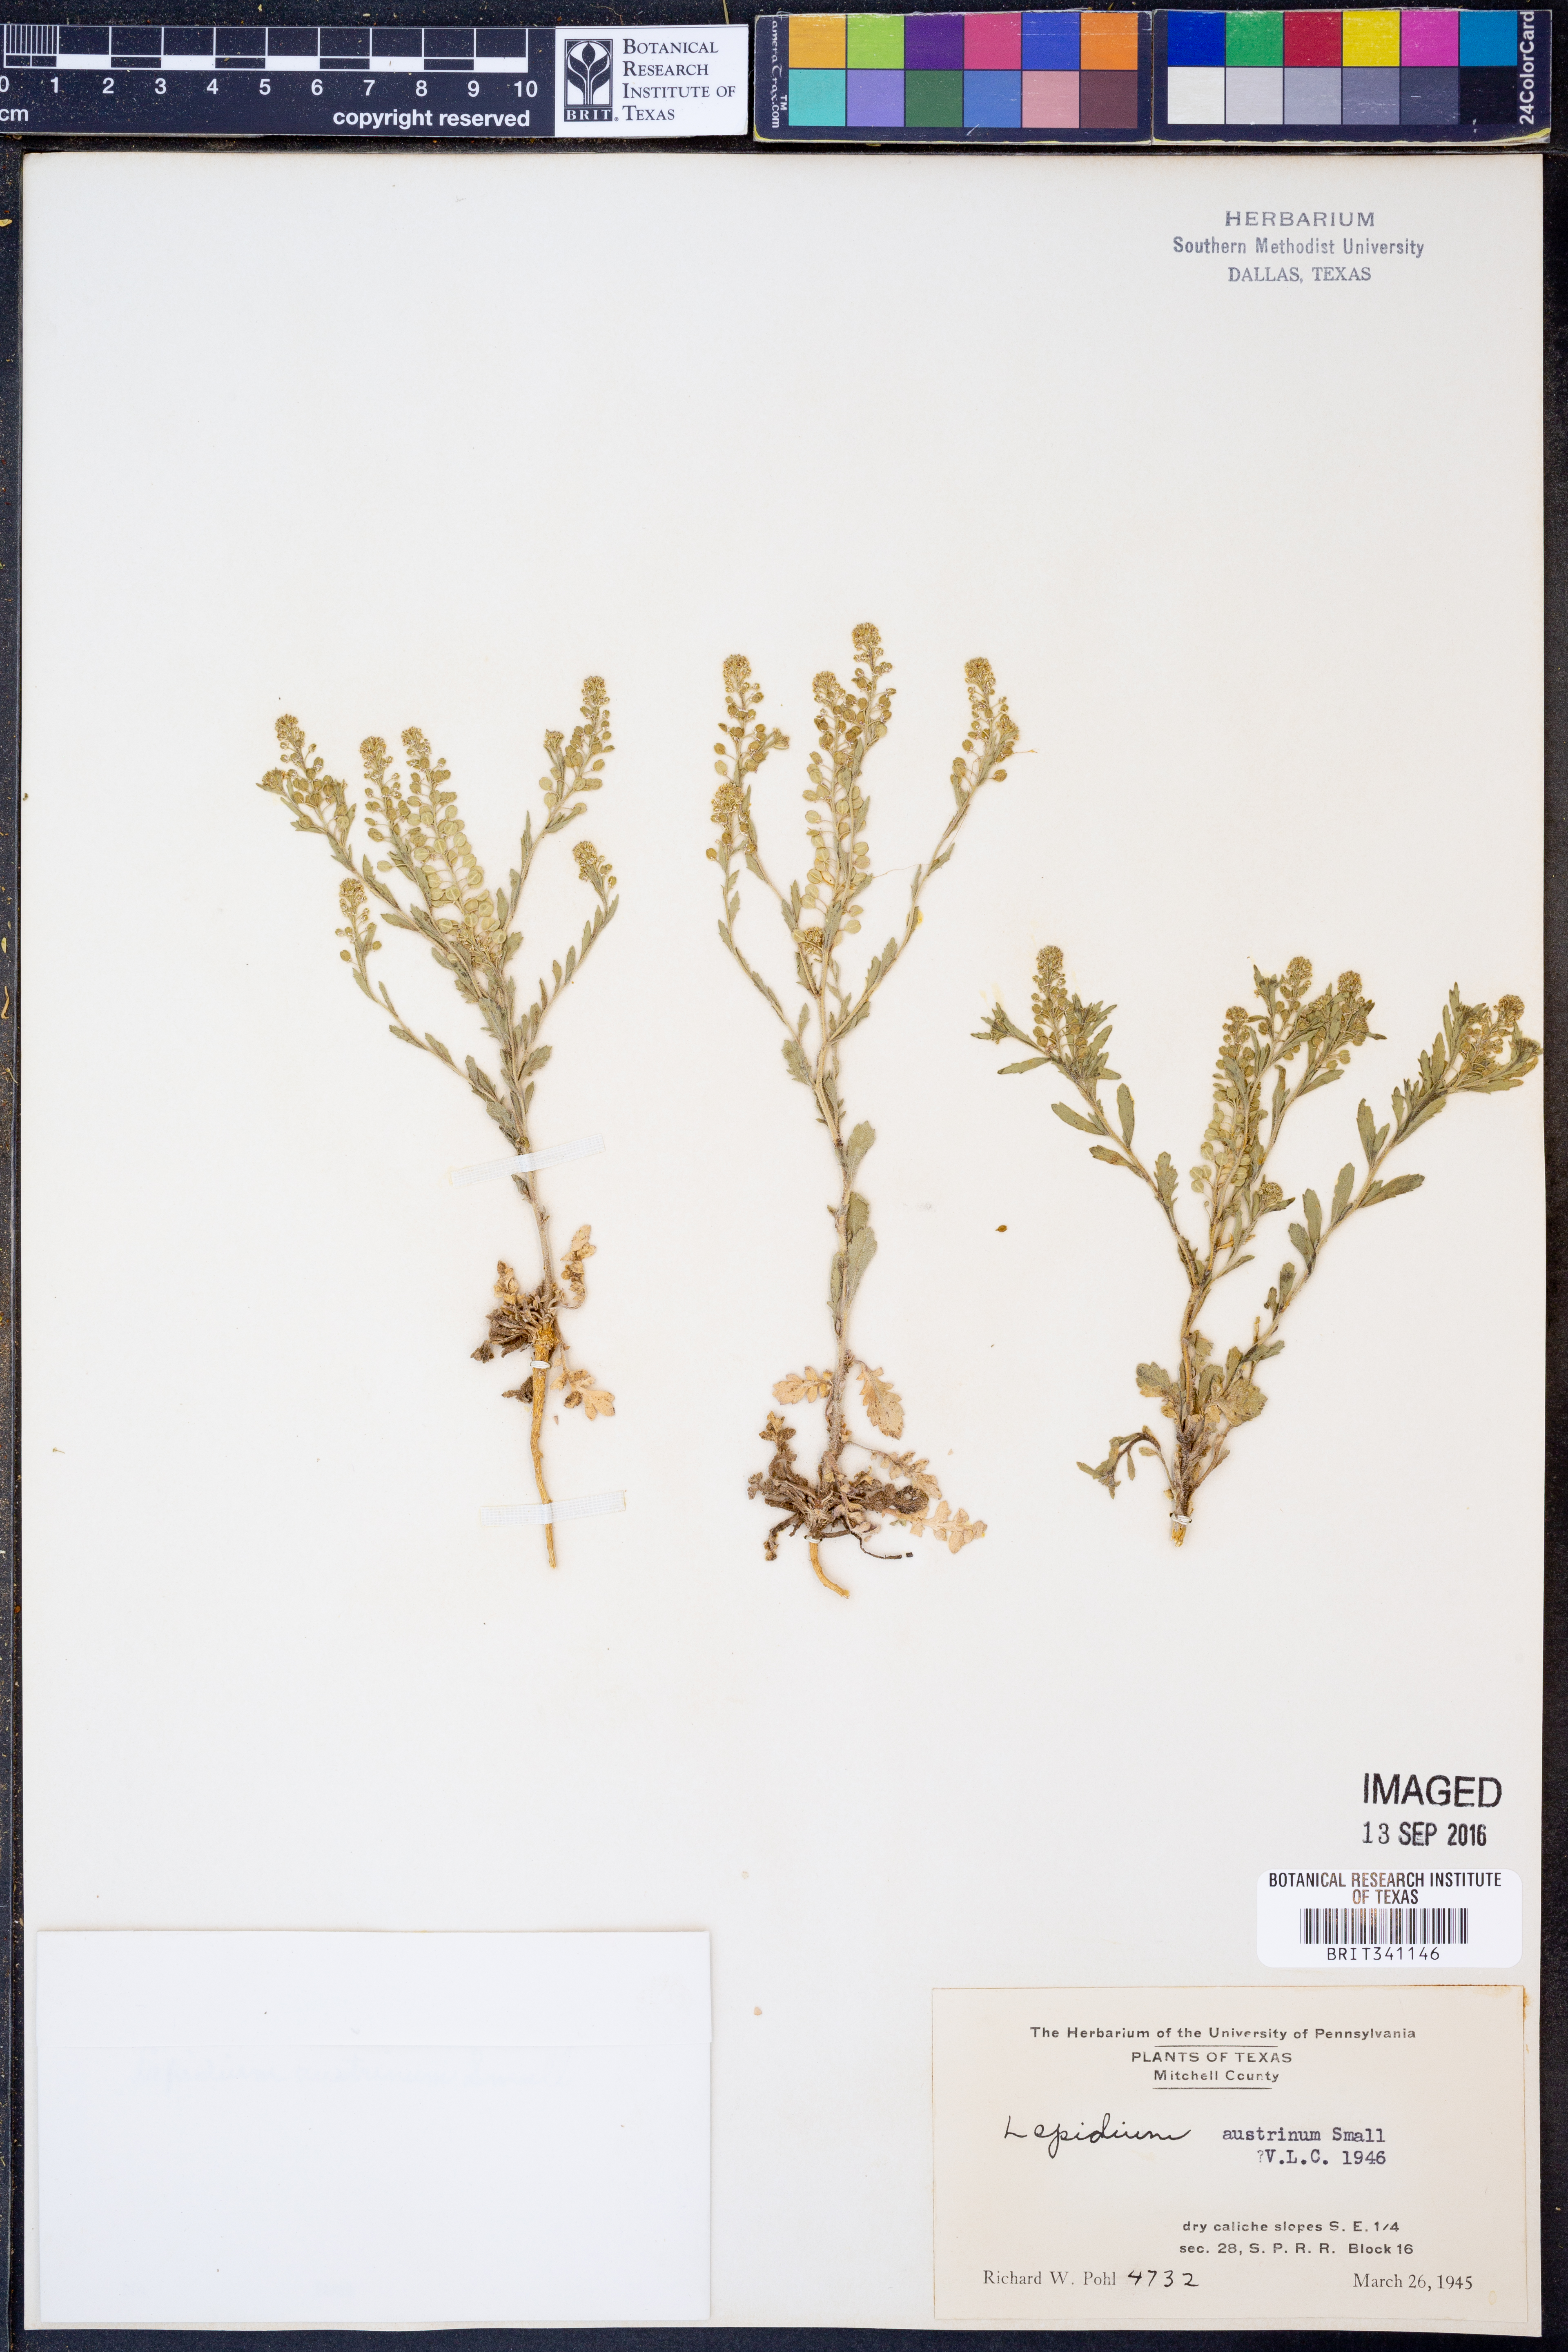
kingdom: Plantae
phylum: Tracheophyta
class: Magnoliopsida
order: Brassicales
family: Brassicaceae
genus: Lepidium
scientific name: Lepidium austrinum
